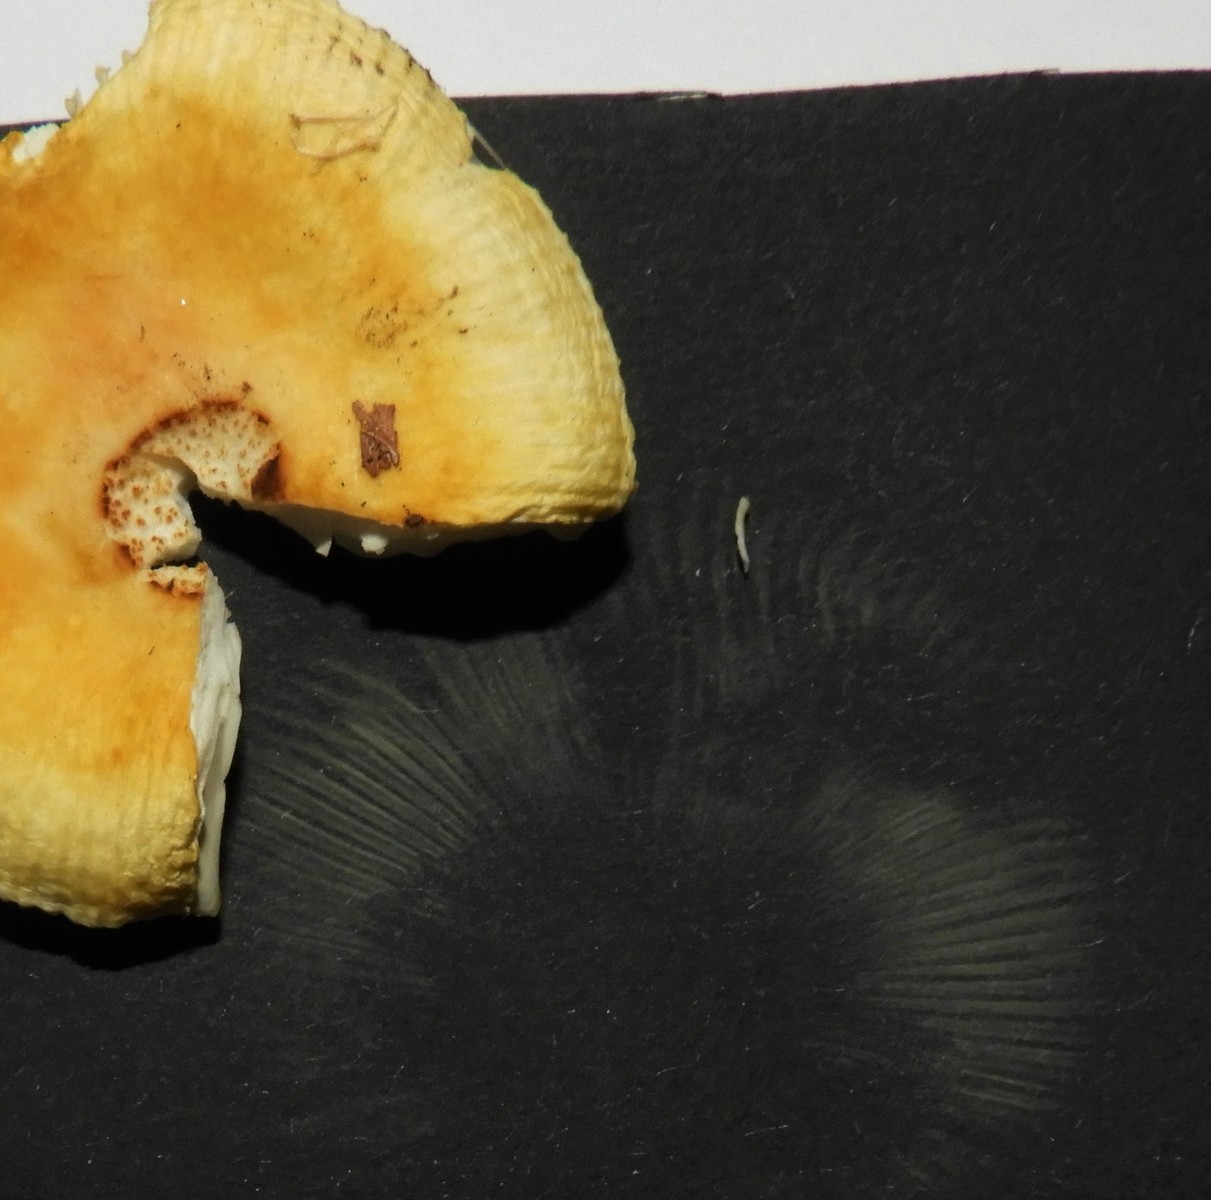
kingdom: Fungi
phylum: Basidiomycota
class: Agaricomycetes
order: Russulales
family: Russulaceae
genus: Russula
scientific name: Russula solaris
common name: sol-skørhat
